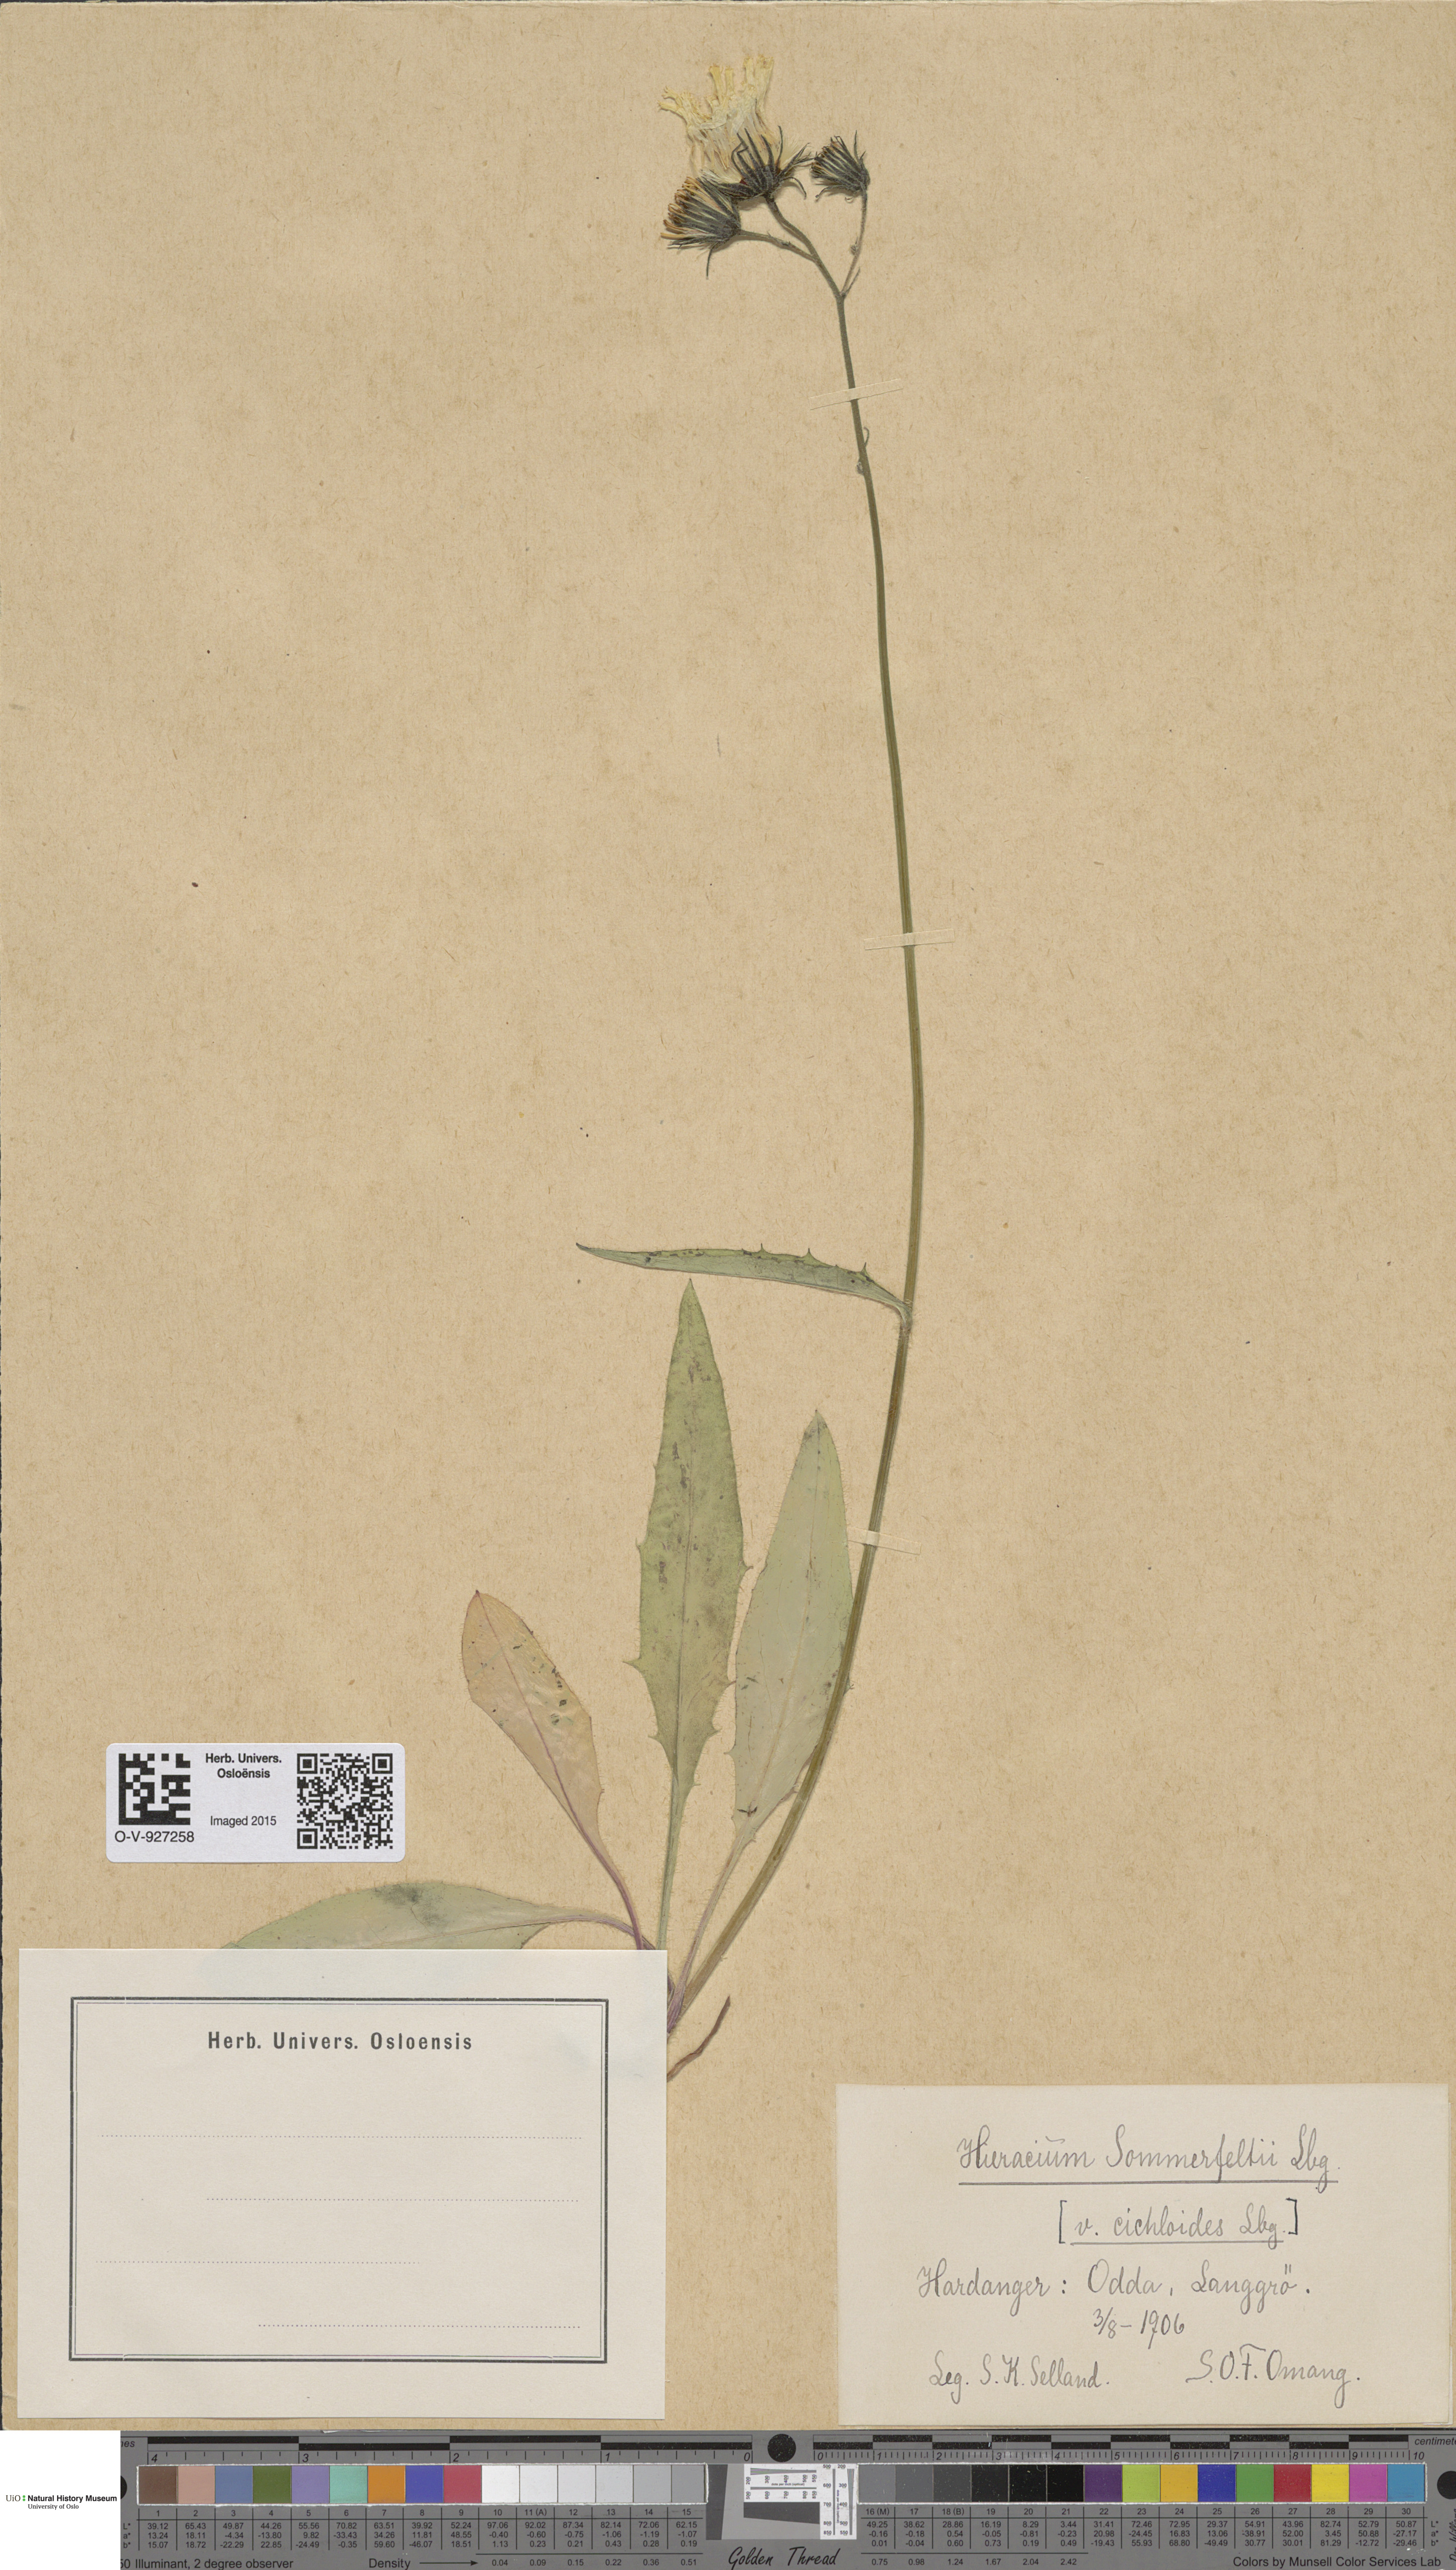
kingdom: Plantae
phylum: Tracheophyta
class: Magnoliopsida
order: Asterales
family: Asteraceae
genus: Hieracium
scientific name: Hieracium sommerfeltii
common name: Sommerfelt's hawkweed
